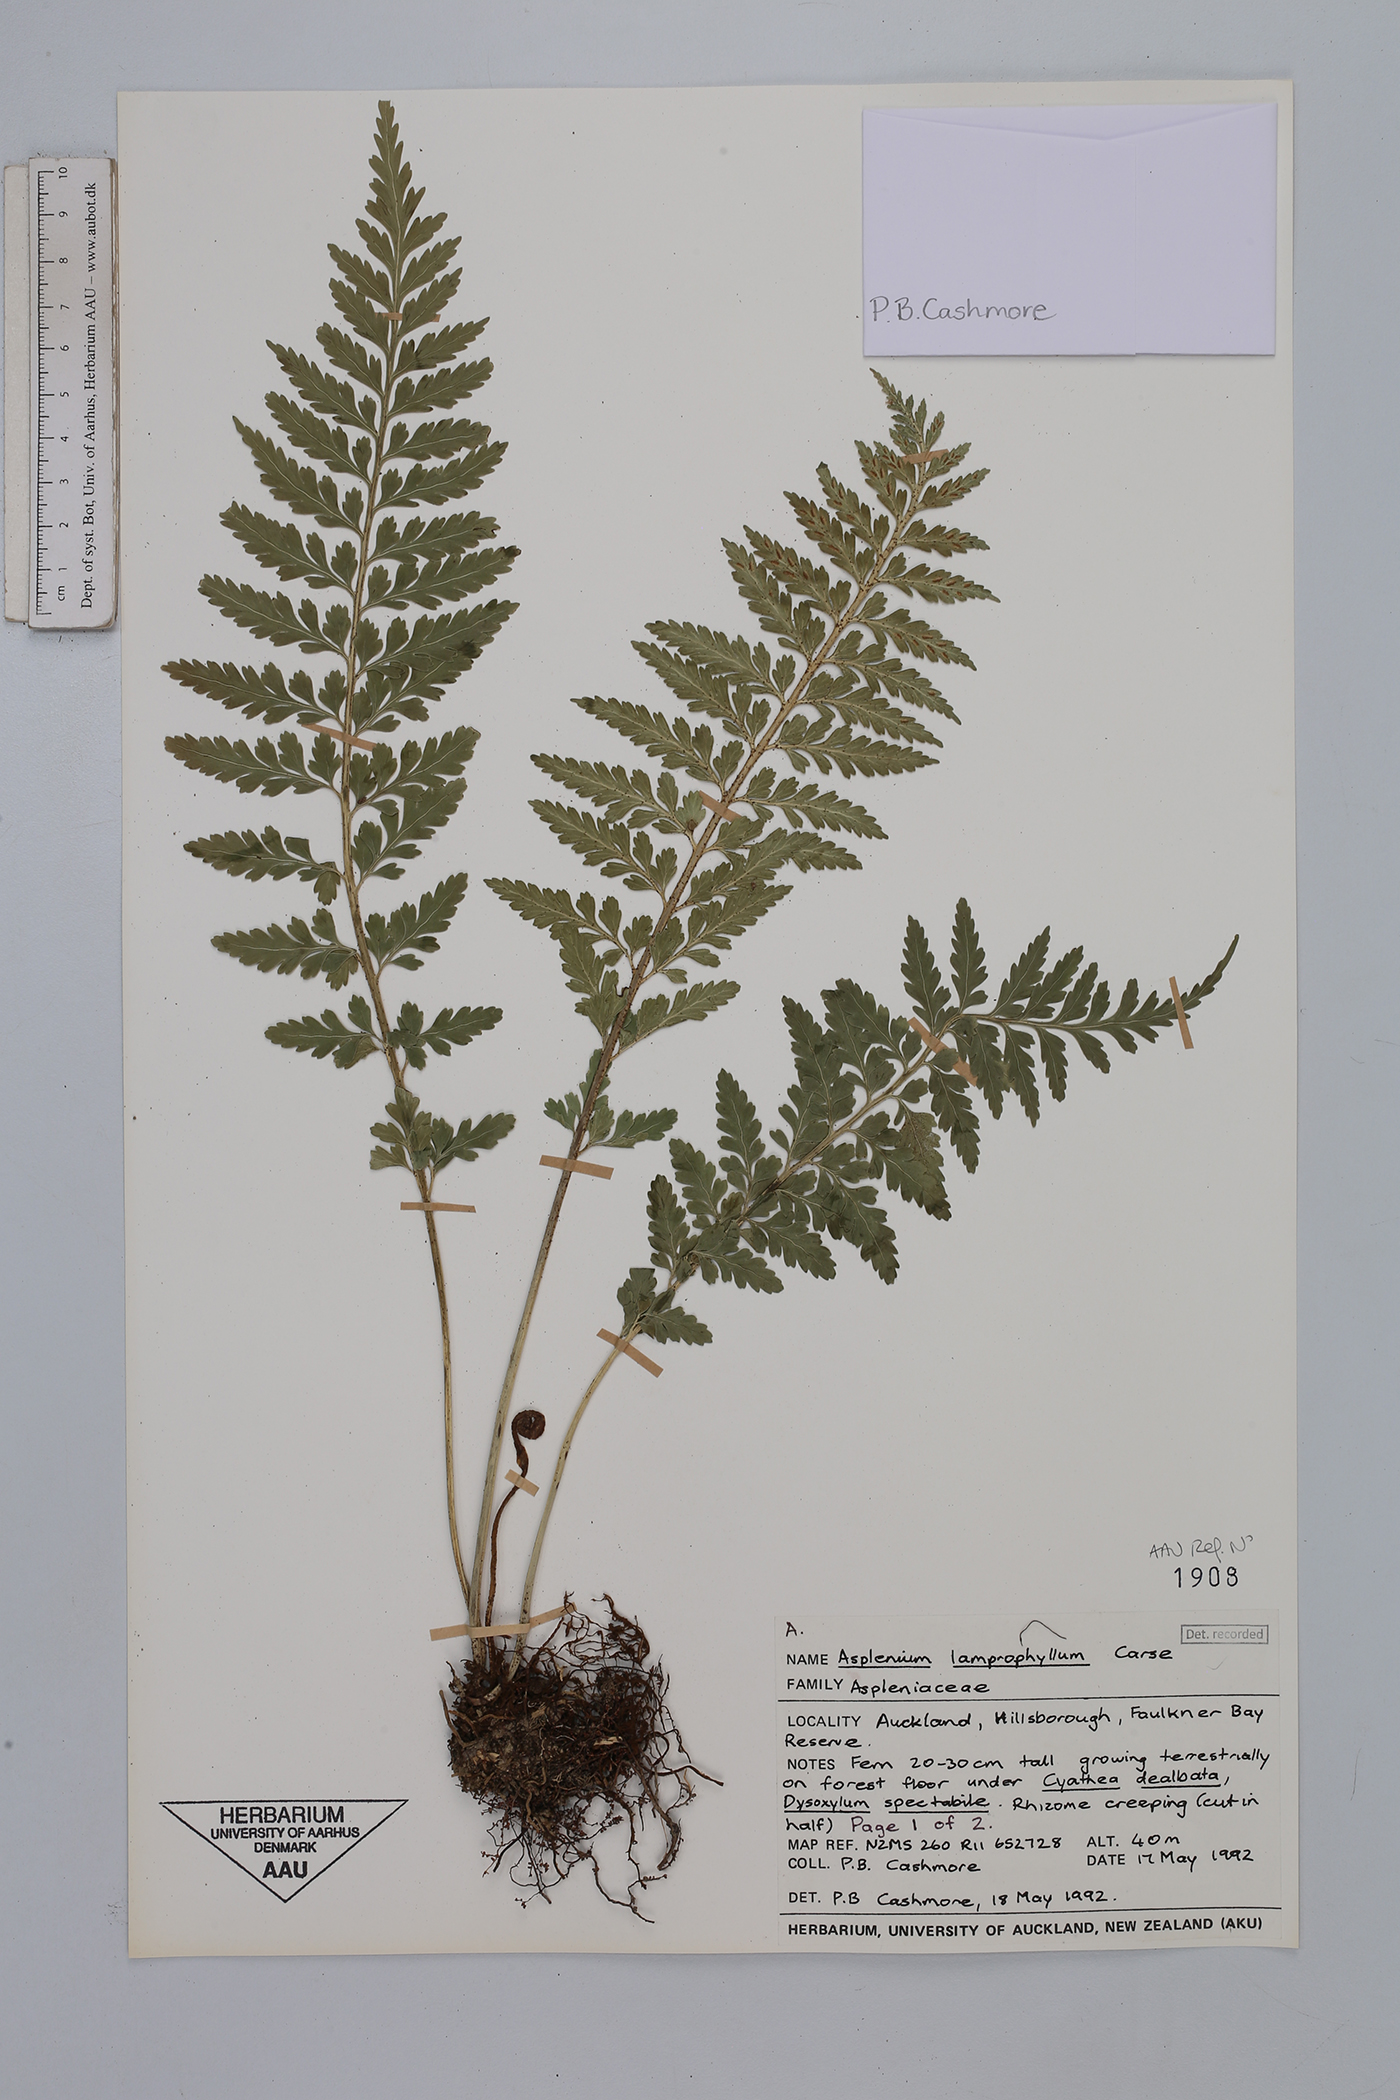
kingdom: Plantae
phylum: Tracheophyta
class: Polypodiopsida
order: Polypodiales
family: Aspleniaceae
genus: Asplenium
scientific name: Asplenium lamprophyllum
